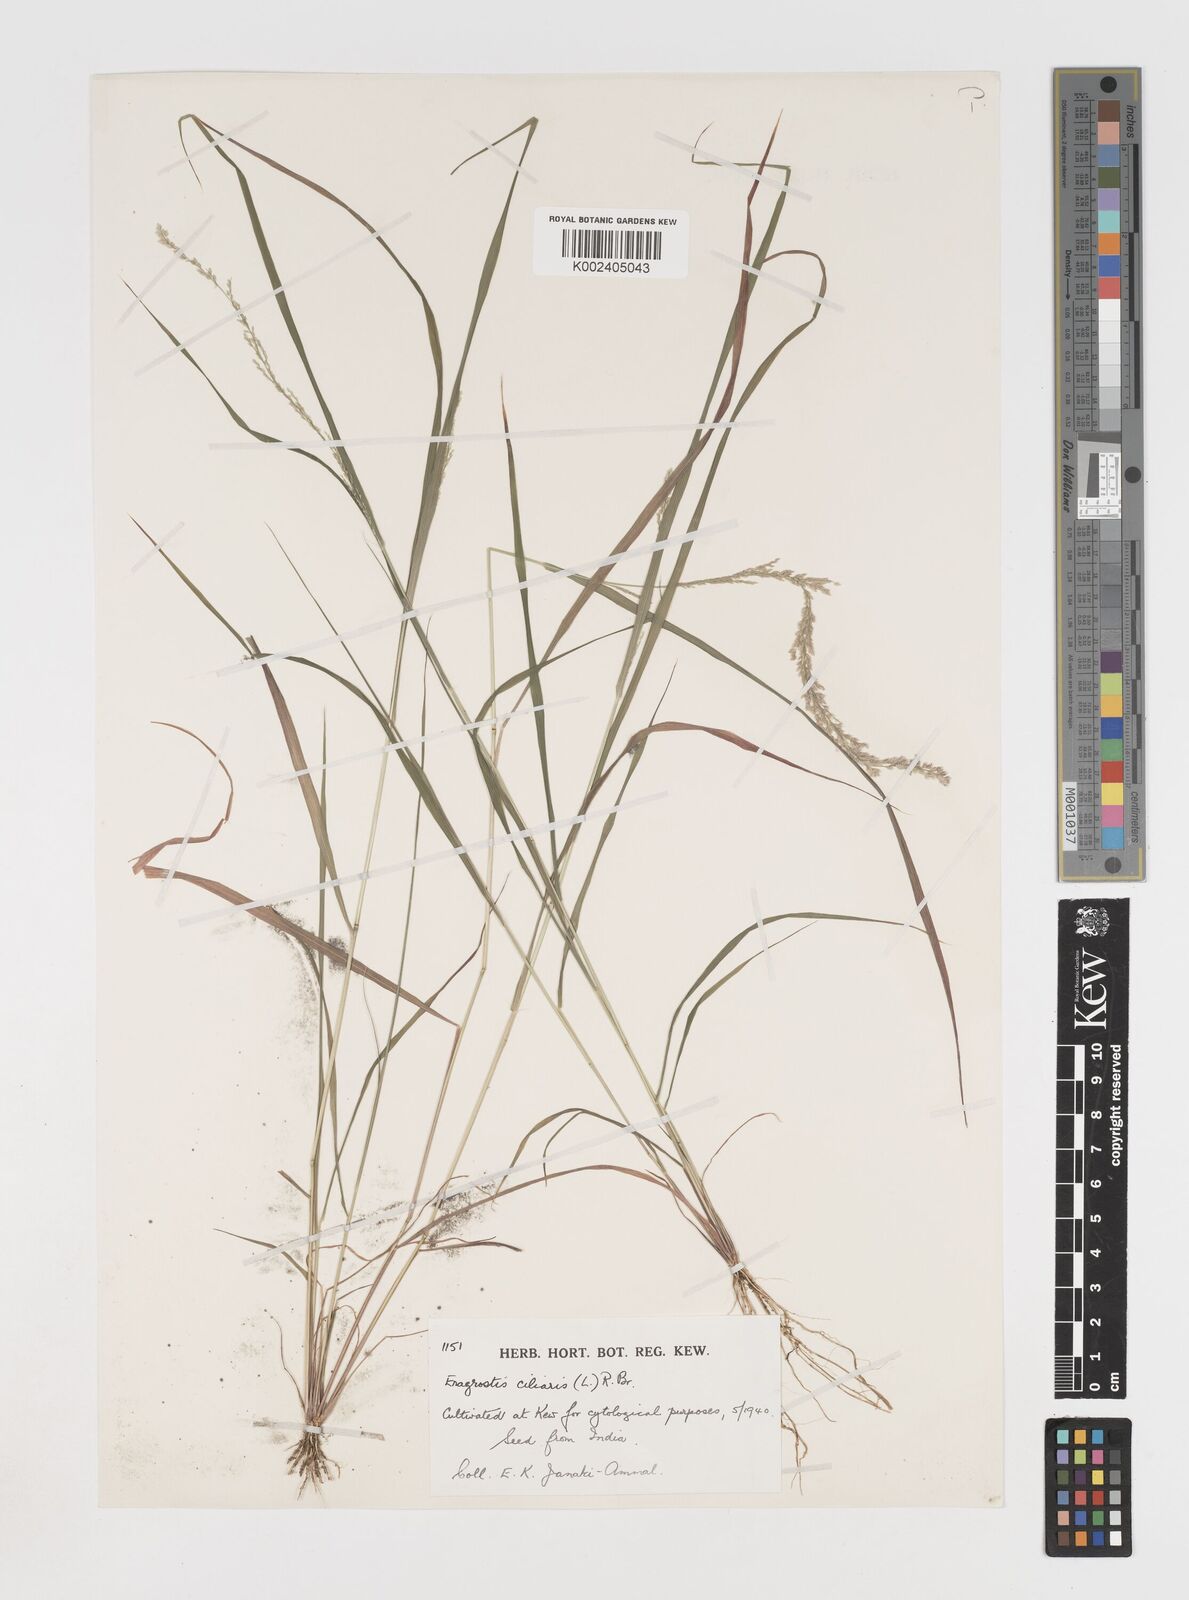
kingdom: Plantae
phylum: Tracheophyta
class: Liliopsida
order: Poales
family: Poaceae
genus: Eragrostis
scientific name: Eragrostis ciliaris
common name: Gophertail lovegrass
